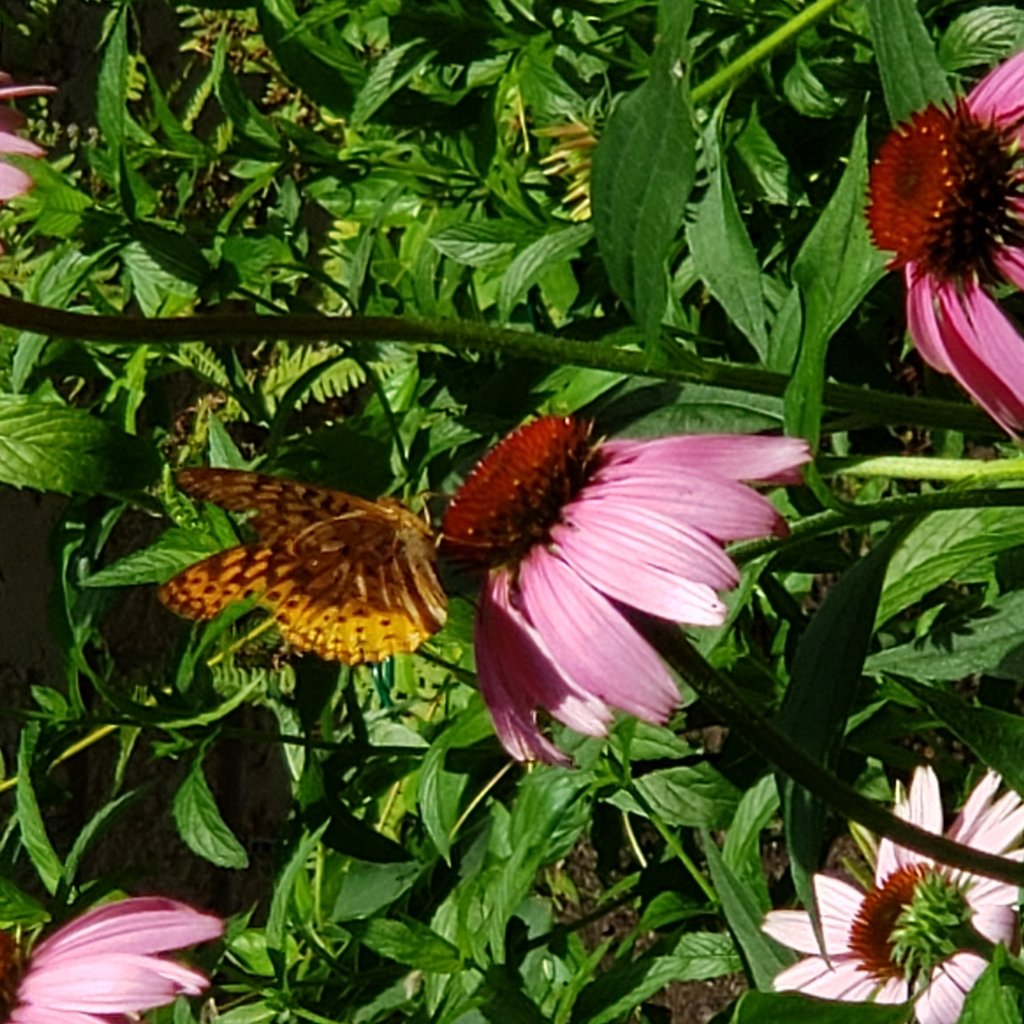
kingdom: Animalia
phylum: Arthropoda
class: Insecta
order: Lepidoptera
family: Nymphalidae
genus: Speyeria
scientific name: Speyeria cybele
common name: Great Spangled Fritillary
